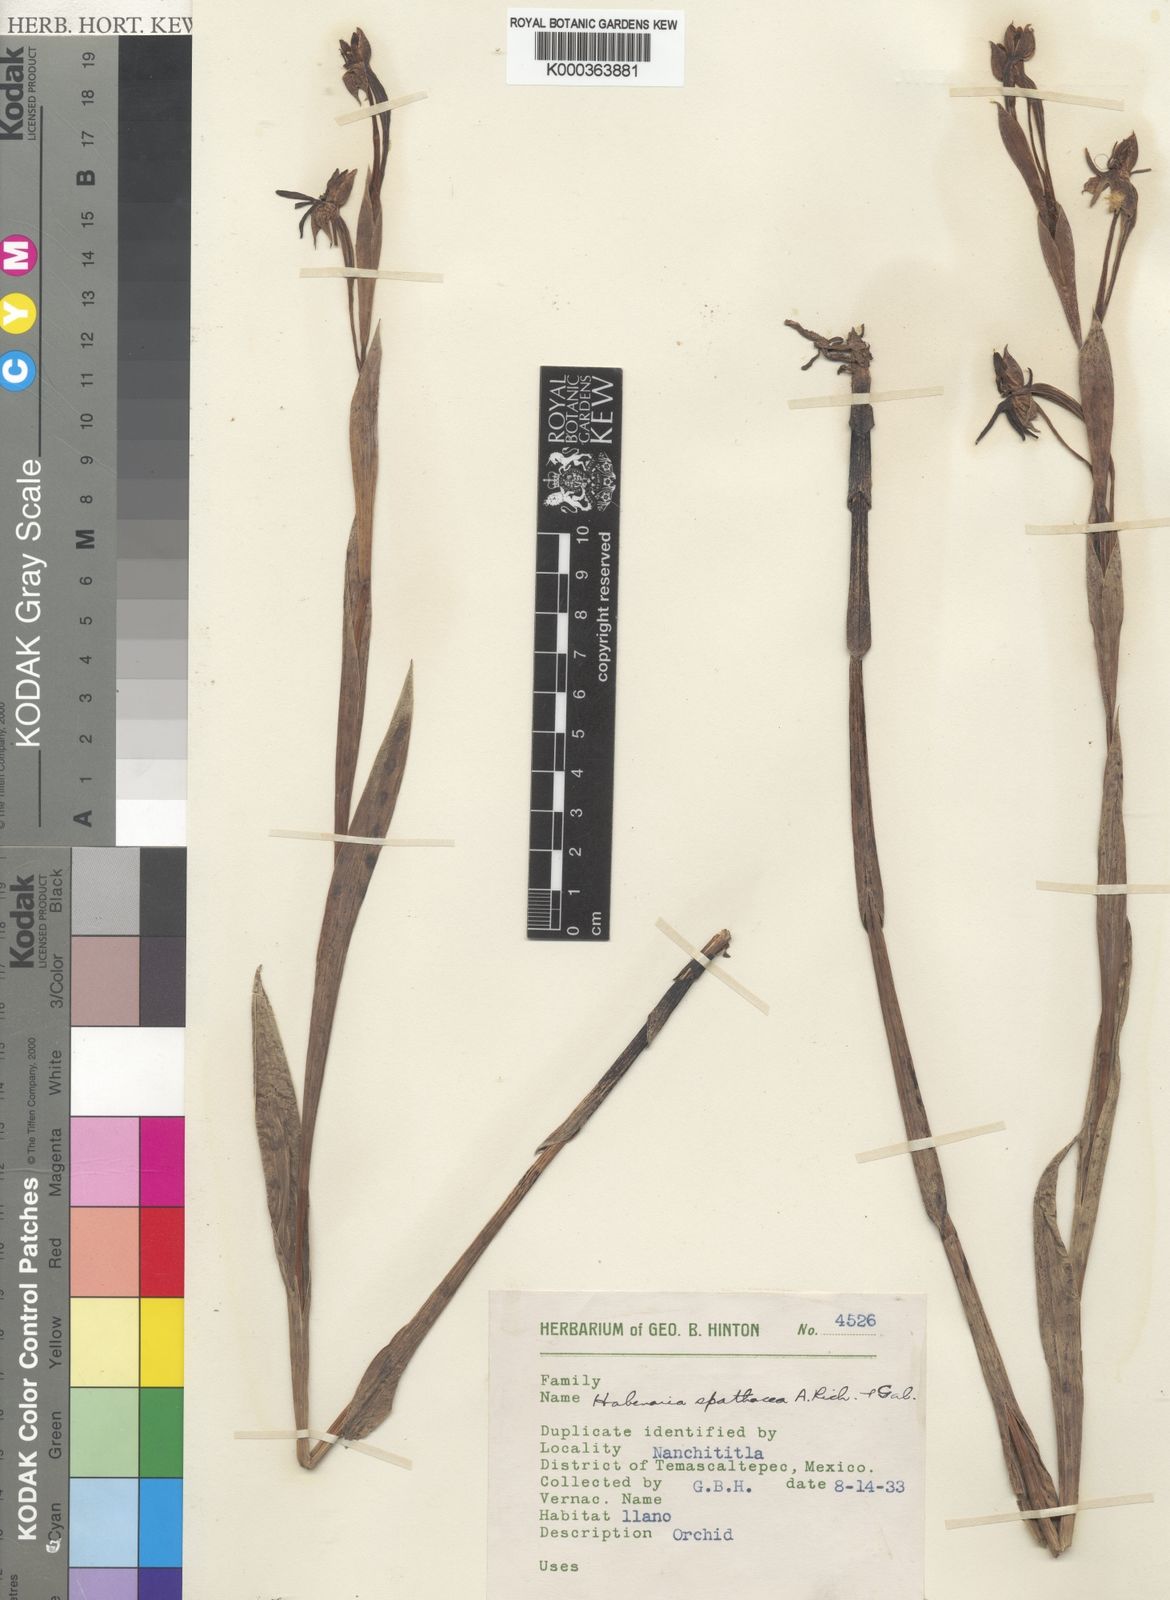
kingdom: Plantae
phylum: Tracheophyta
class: Liliopsida
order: Asparagales
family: Orchidaceae
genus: Habenaria
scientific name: Habenaria trifida
